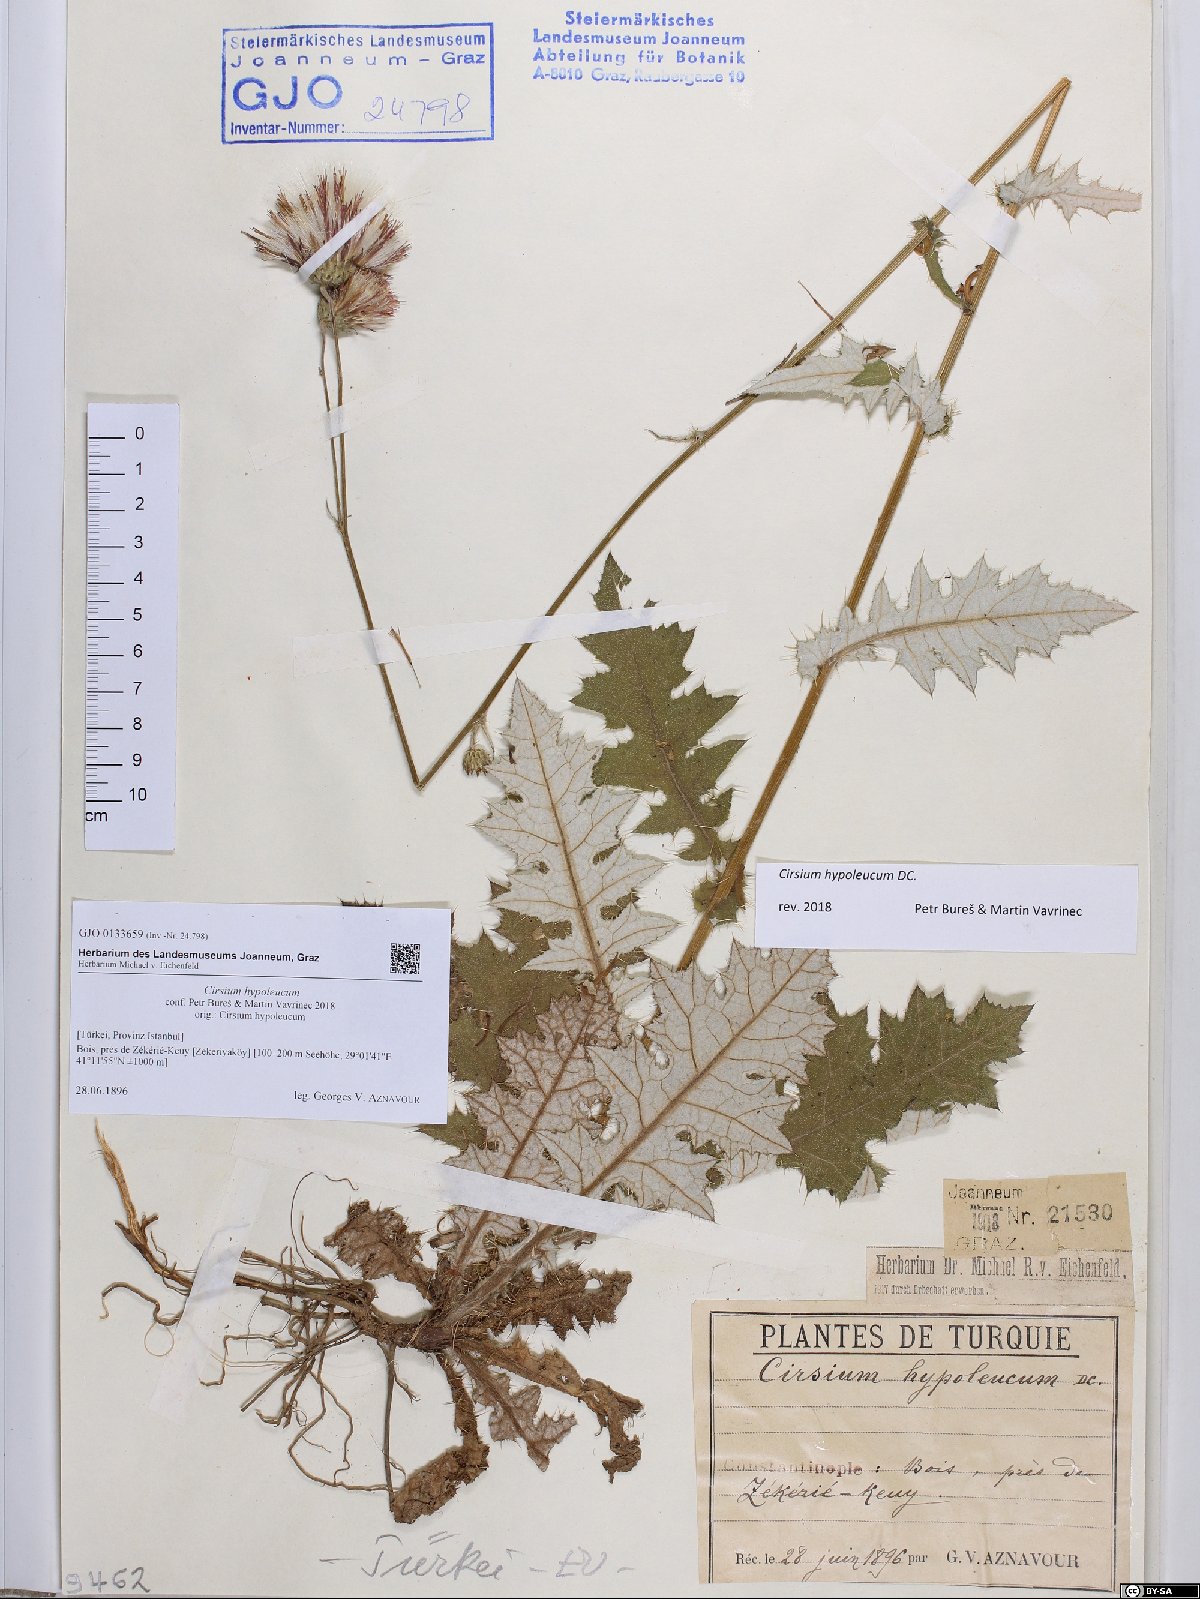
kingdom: Plantae
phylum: Tracheophyta
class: Magnoliopsida
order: Asterales
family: Asteraceae
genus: Cirsium
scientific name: Cirsium hypoleucum
